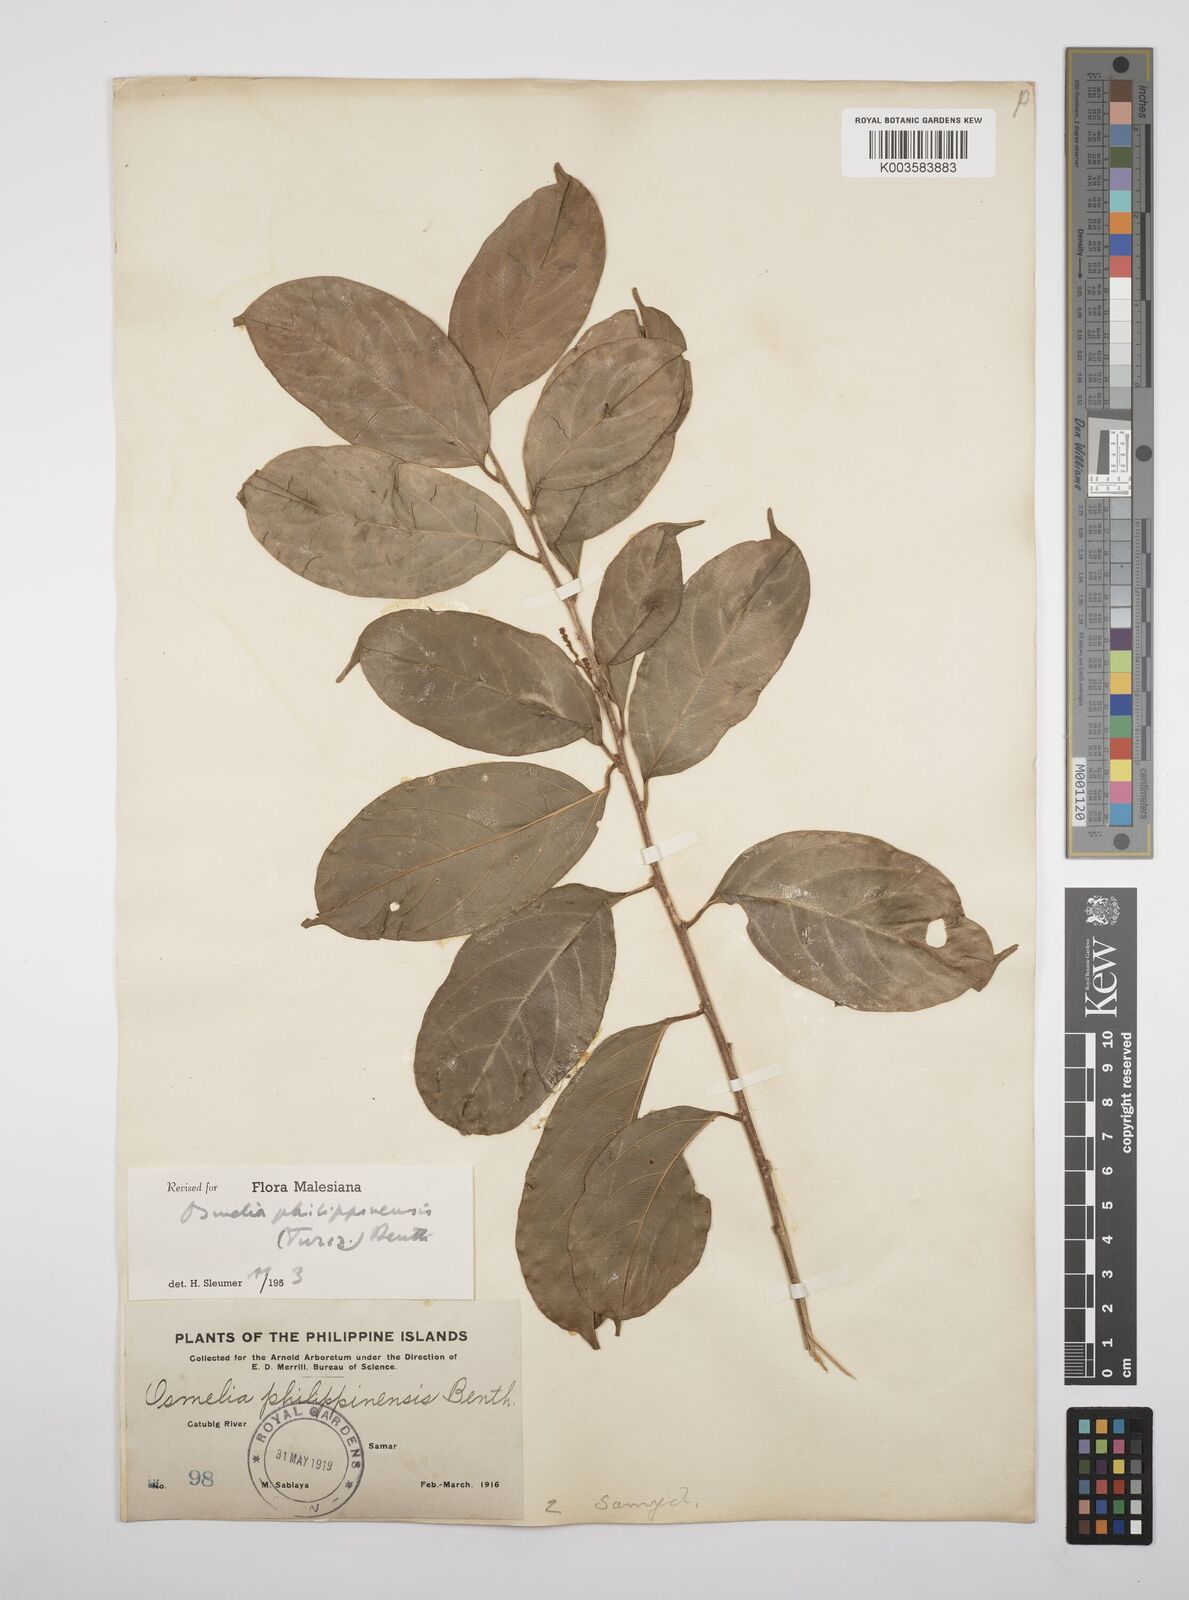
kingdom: Plantae
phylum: Tracheophyta
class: Magnoliopsida
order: Malpighiales
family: Salicaceae
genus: Osmelia
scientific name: Osmelia philippina
